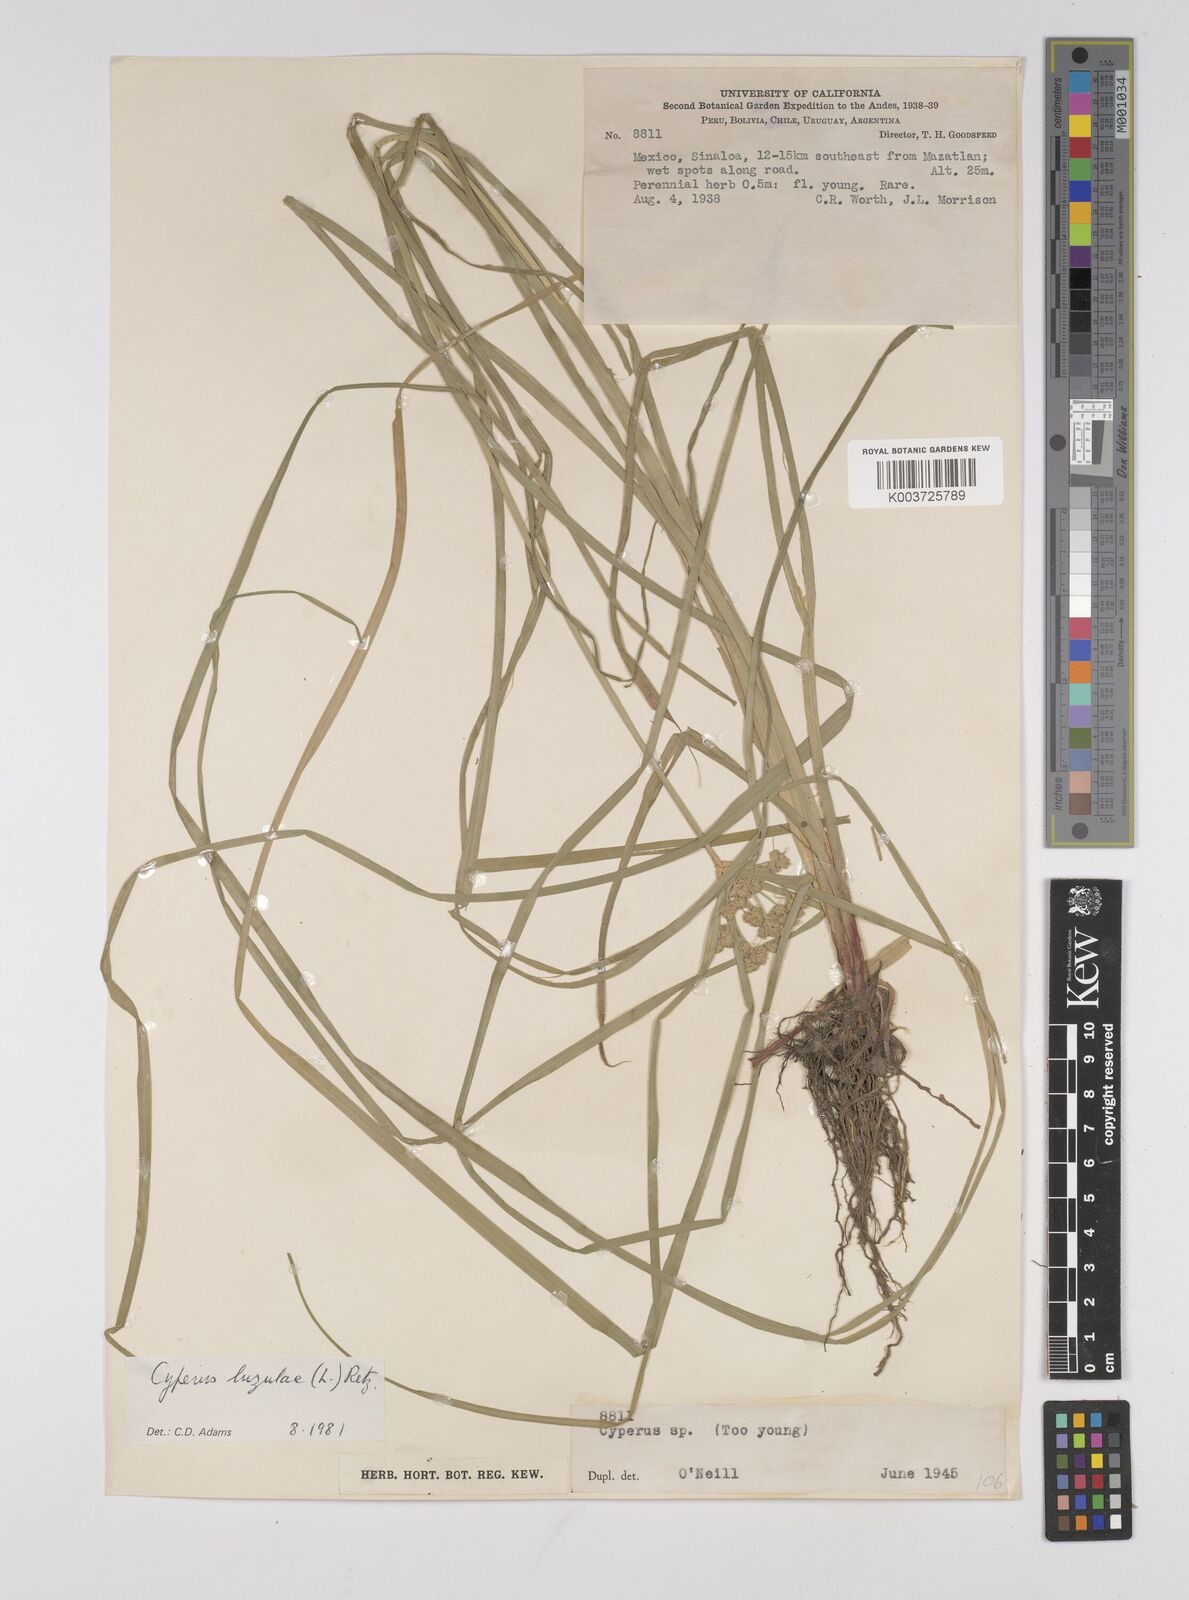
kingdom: Plantae
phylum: Tracheophyta
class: Liliopsida
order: Poales
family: Cyperaceae
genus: Cyperus
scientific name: Cyperus luzulae
